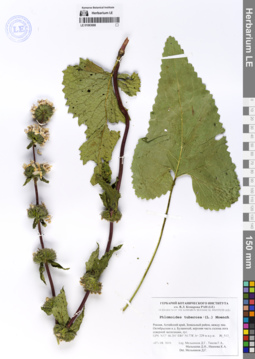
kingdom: Plantae
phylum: Tracheophyta
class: Magnoliopsida
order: Lamiales
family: Lamiaceae
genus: Phlomoides
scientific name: Phlomoides tuberosa
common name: Tuberous jerusalem sage
